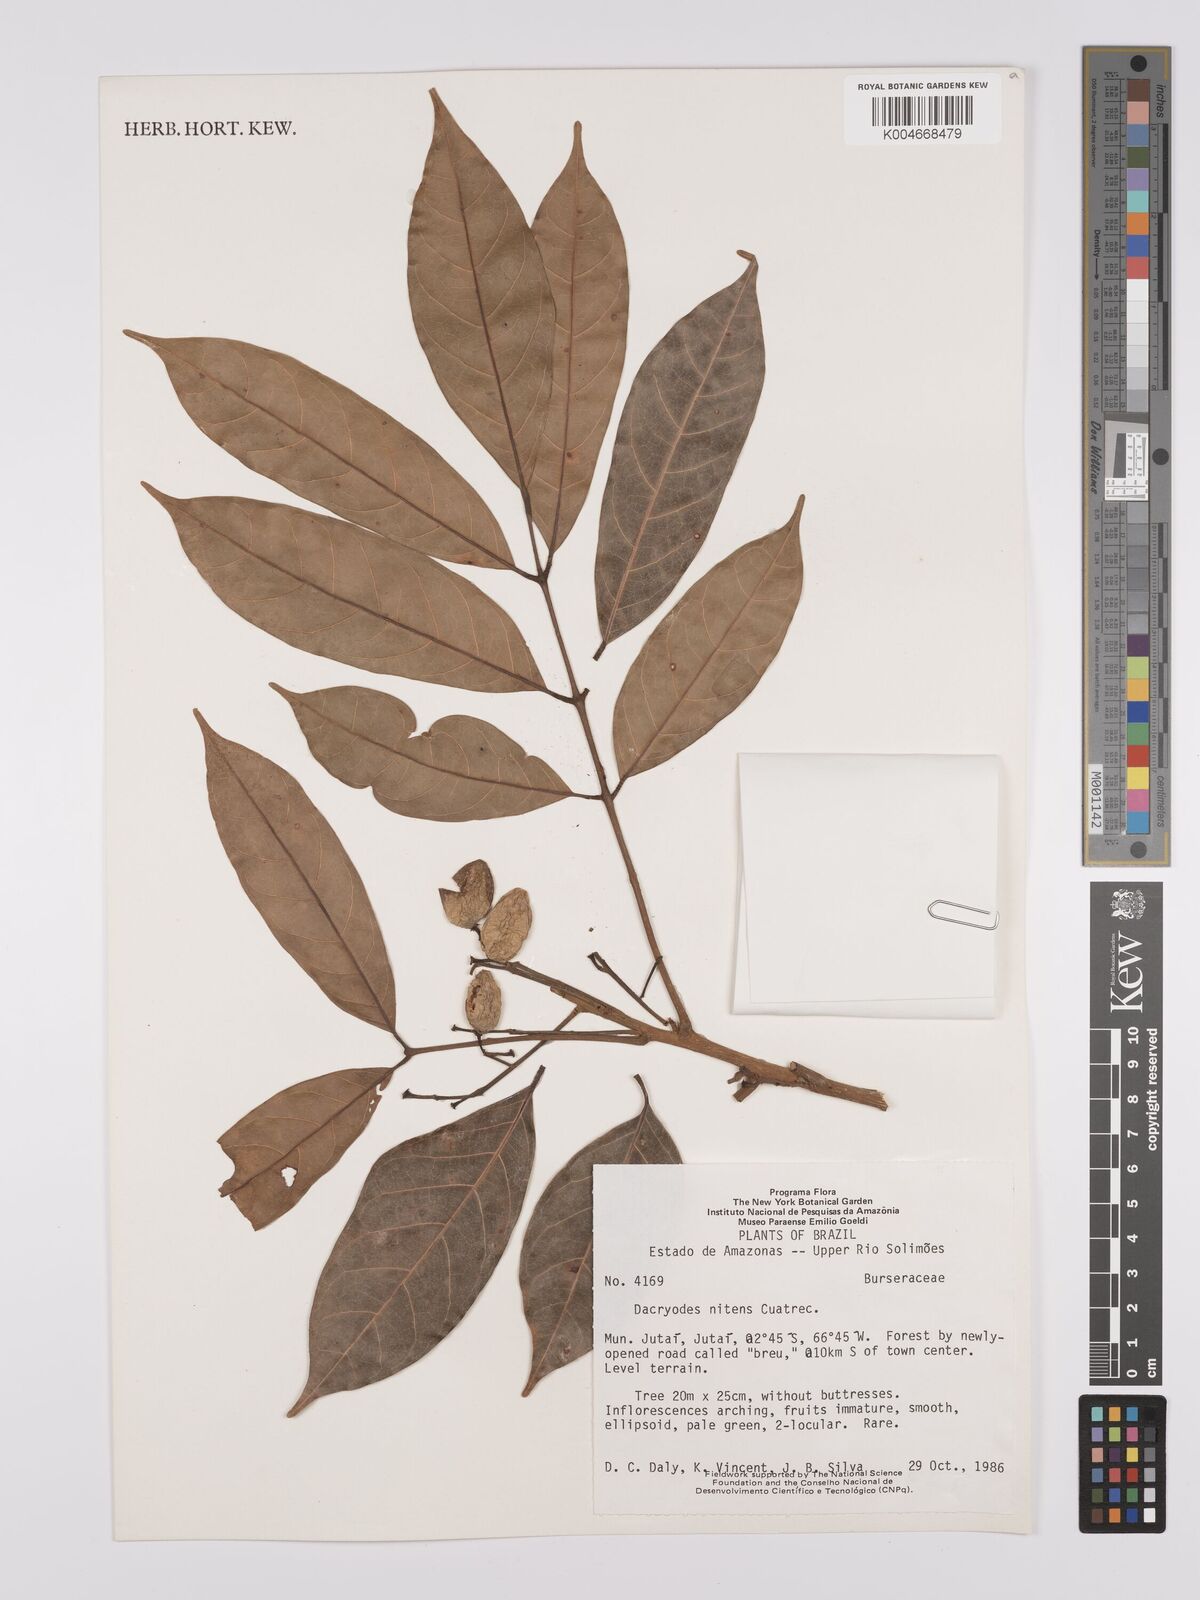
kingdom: Plantae
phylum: Tracheophyta
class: Magnoliopsida
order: Sapindales
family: Burseraceae
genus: Dacryodes
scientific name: Dacryodes nitens
